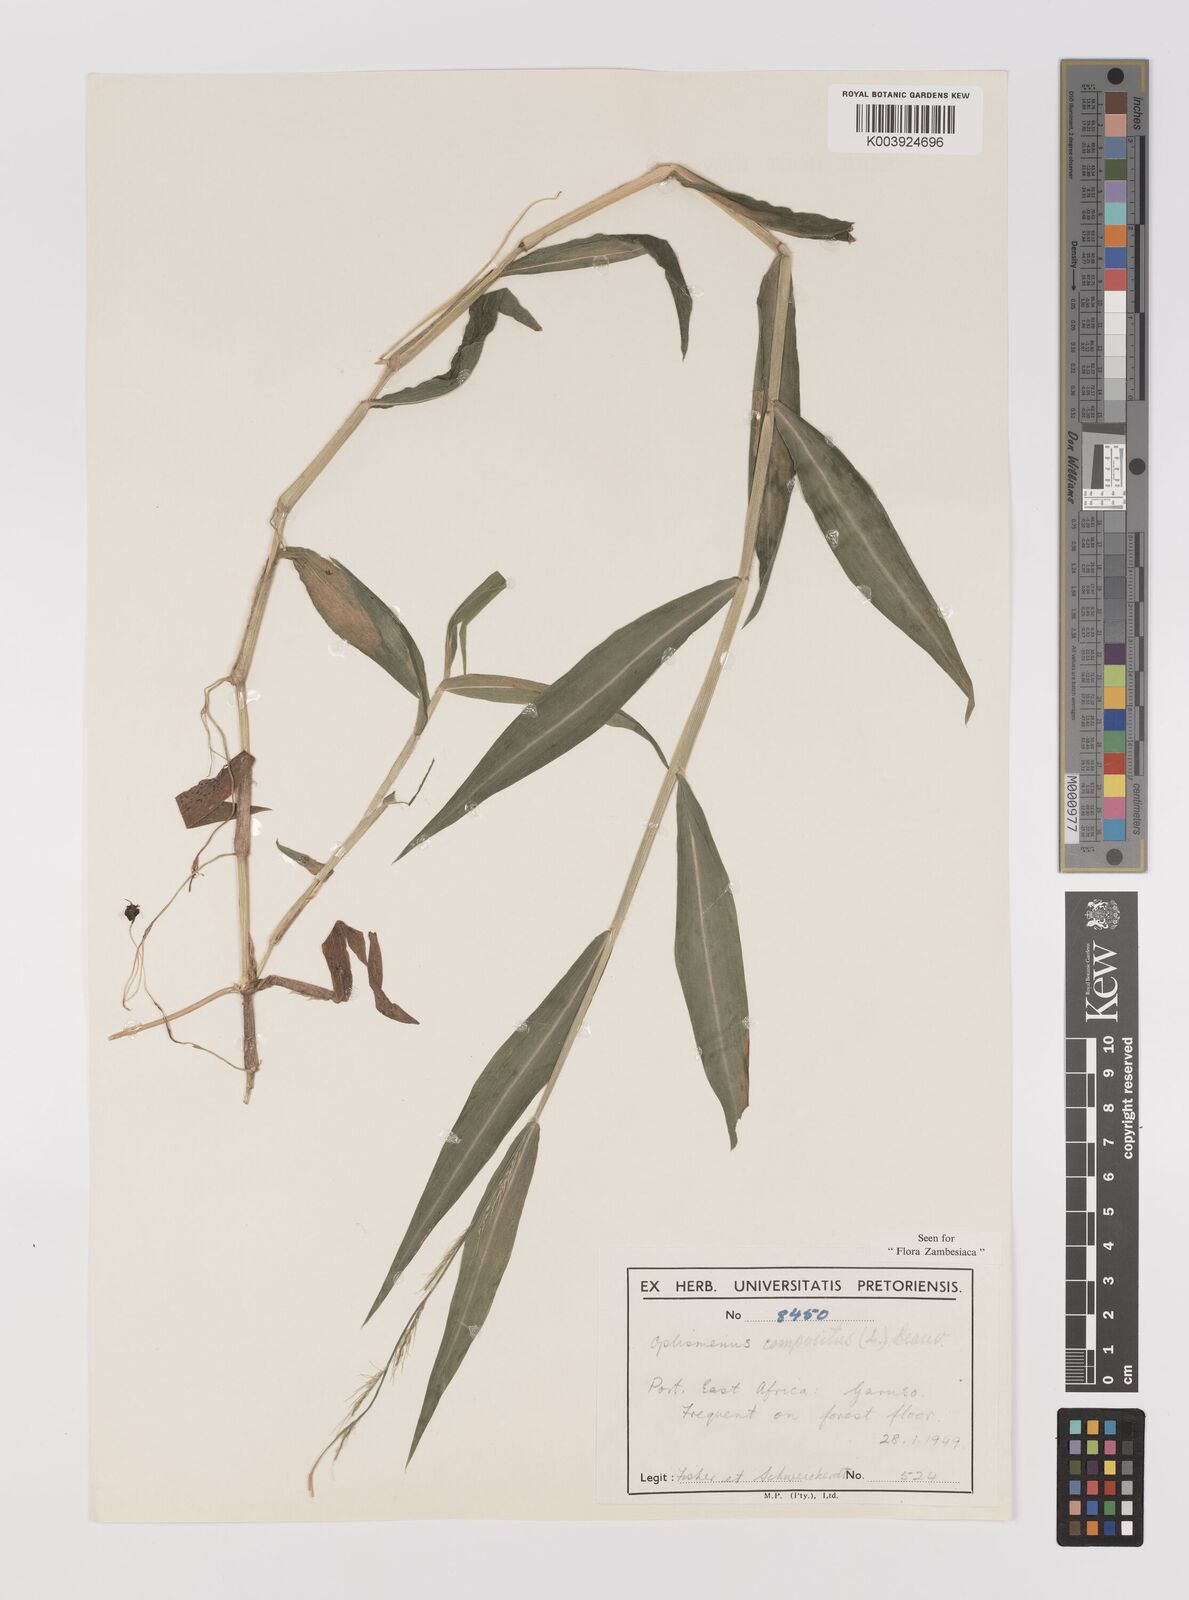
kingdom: Plantae
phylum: Tracheophyta
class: Liliopsida
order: Poales
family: Poaceae
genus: Oplismenus
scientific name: Oplismenus compositus
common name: Running mountain grass
